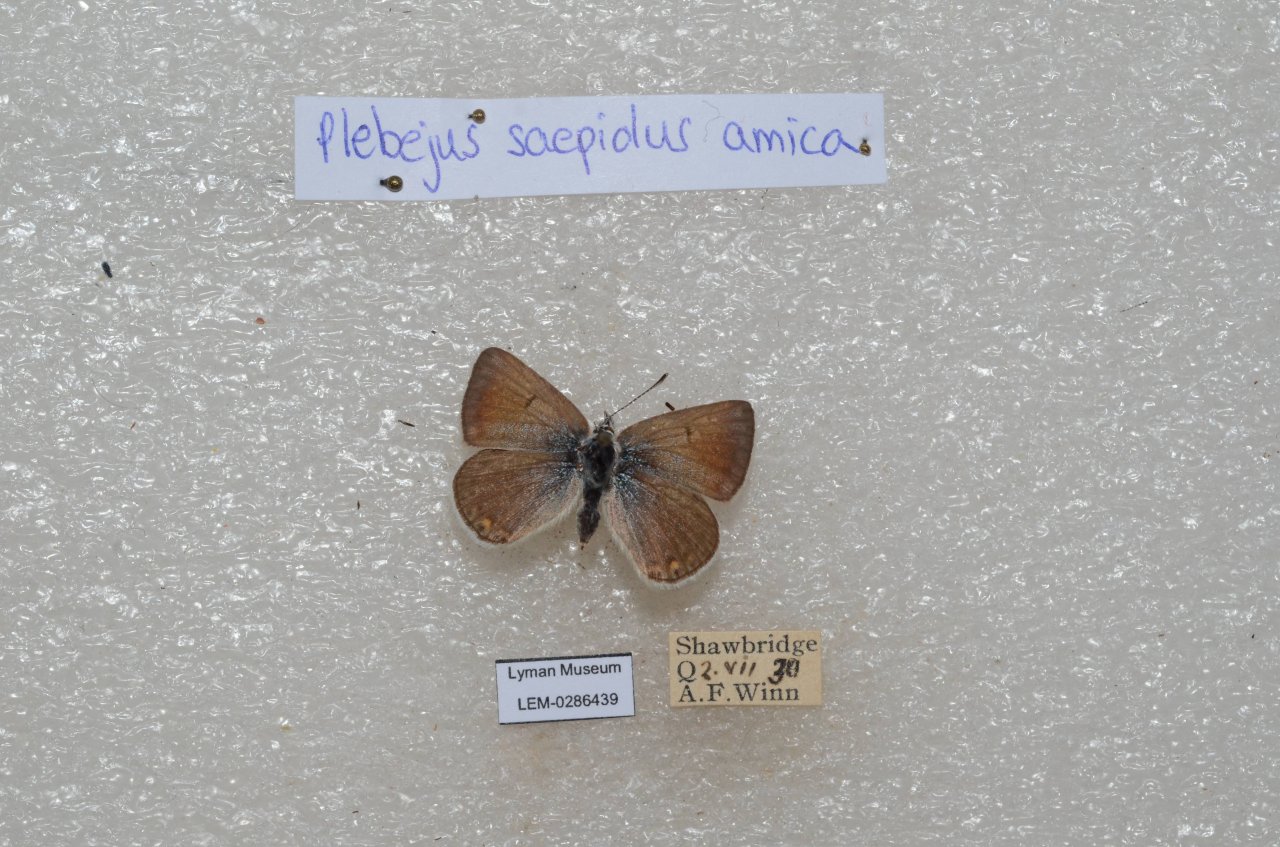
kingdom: Animalia
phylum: Arthropoda
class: Insecta
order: Lepidoptera
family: Lycaenidae
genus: Plebejus
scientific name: Plebejus saepiolus
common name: Greenish Blue
